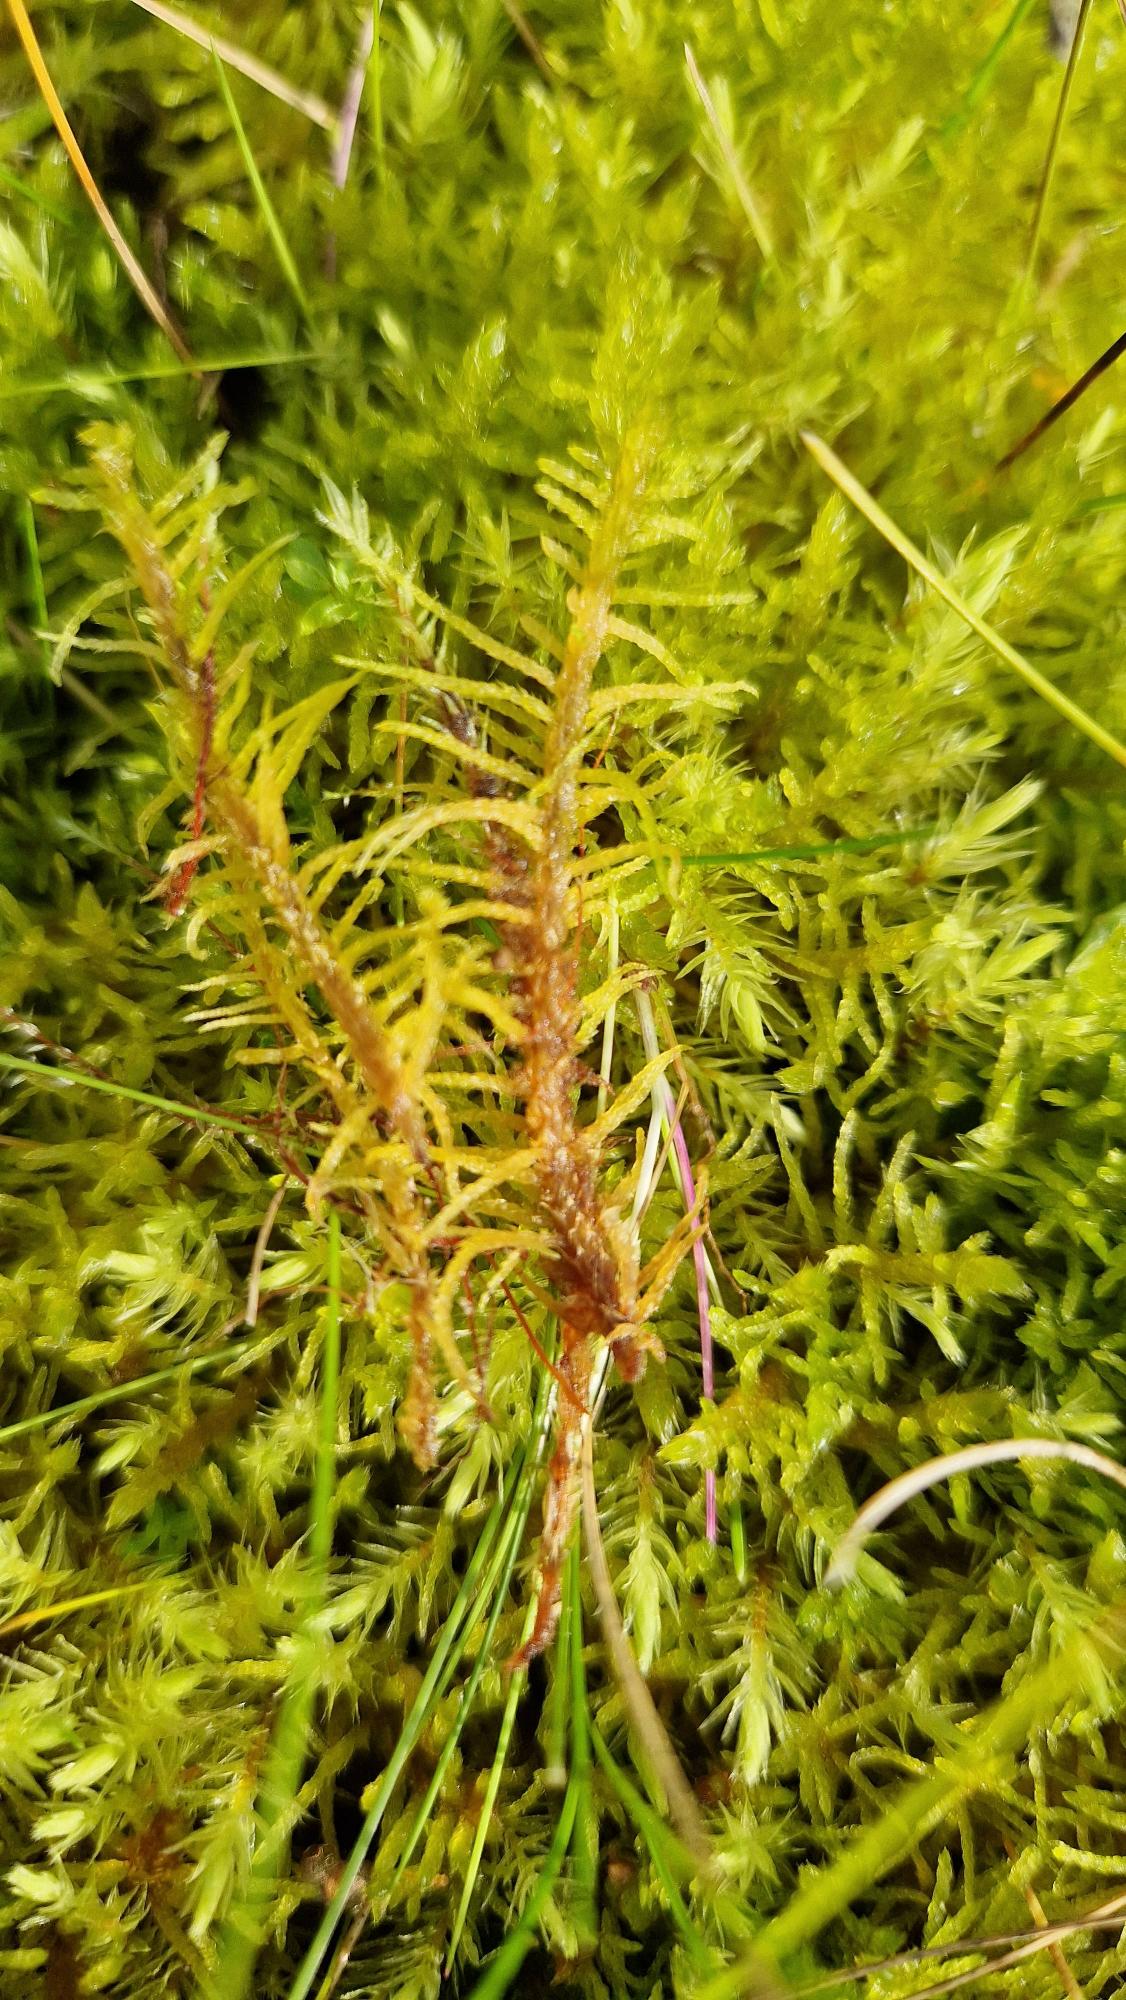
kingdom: Plantae
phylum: Bryophyta
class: Bryopsida
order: Hypnales
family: Helodiaceae
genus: Helodium
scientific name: Helodium blandowii
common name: Kær-gyldenmos
